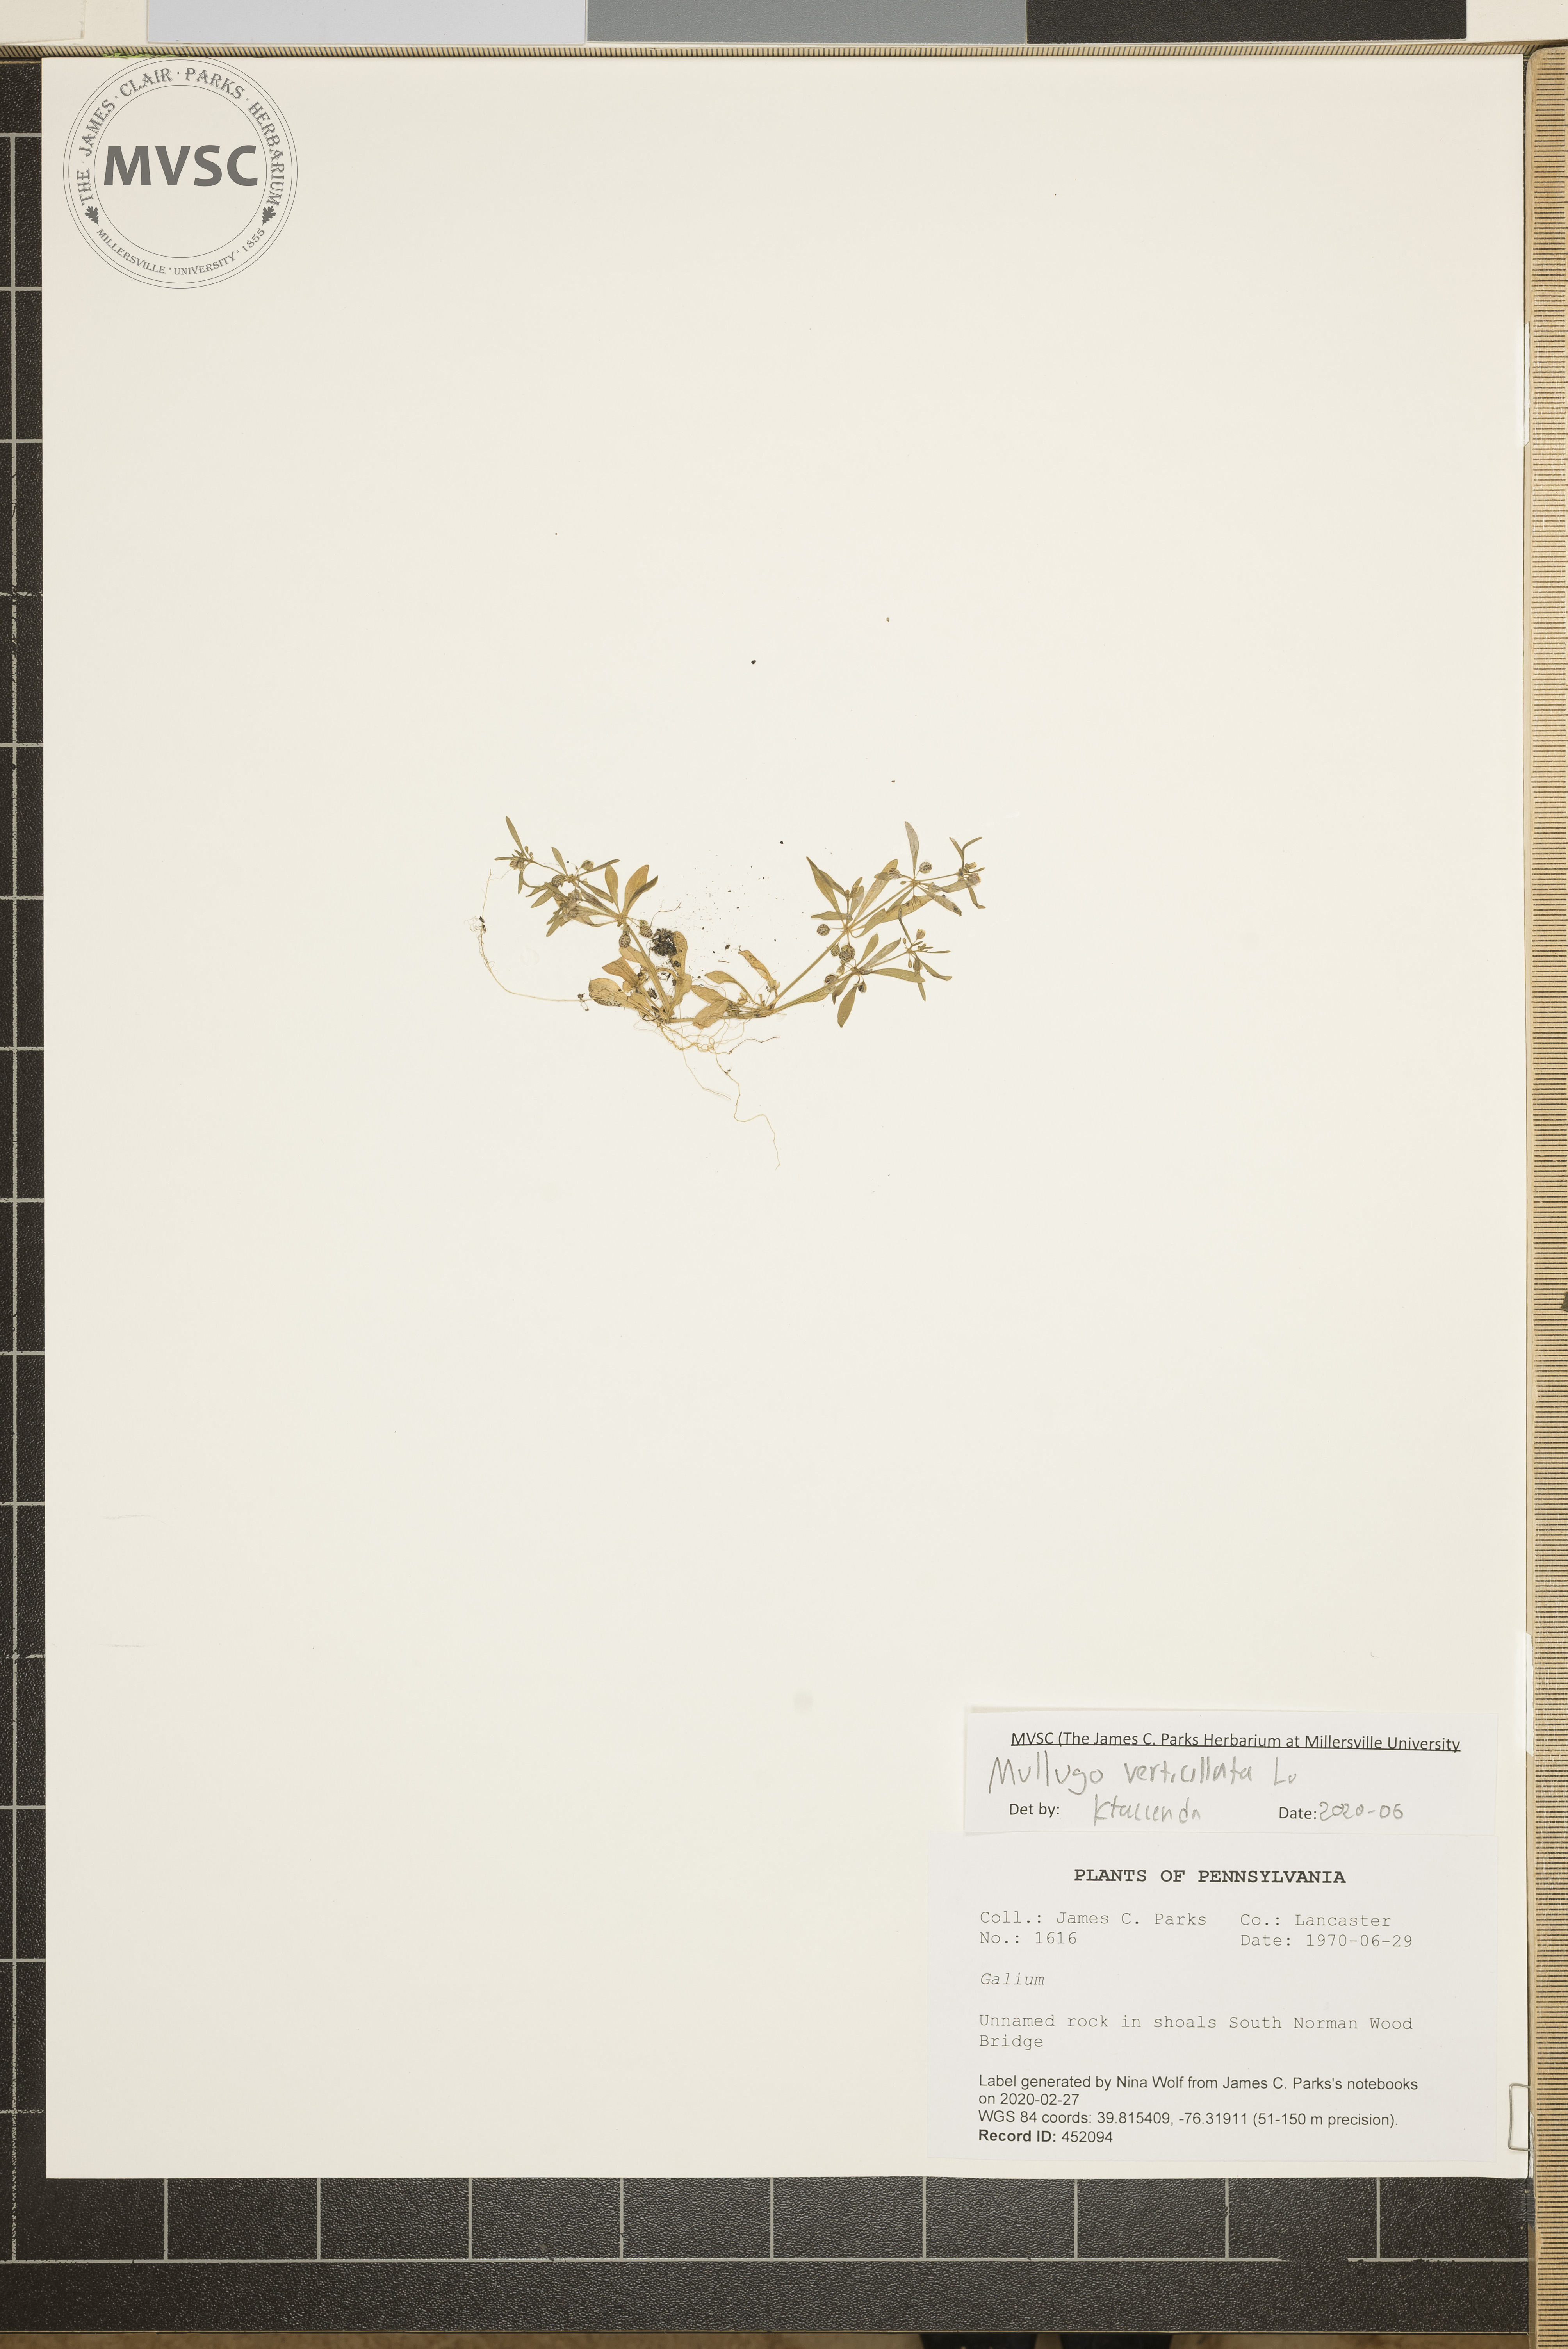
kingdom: Plantae
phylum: Tracheophyta
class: Magnoliopsida
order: Caryophyllales
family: Molluginaceae
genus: Mollugo
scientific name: Mollugo verticillata
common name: Green carpetweed
